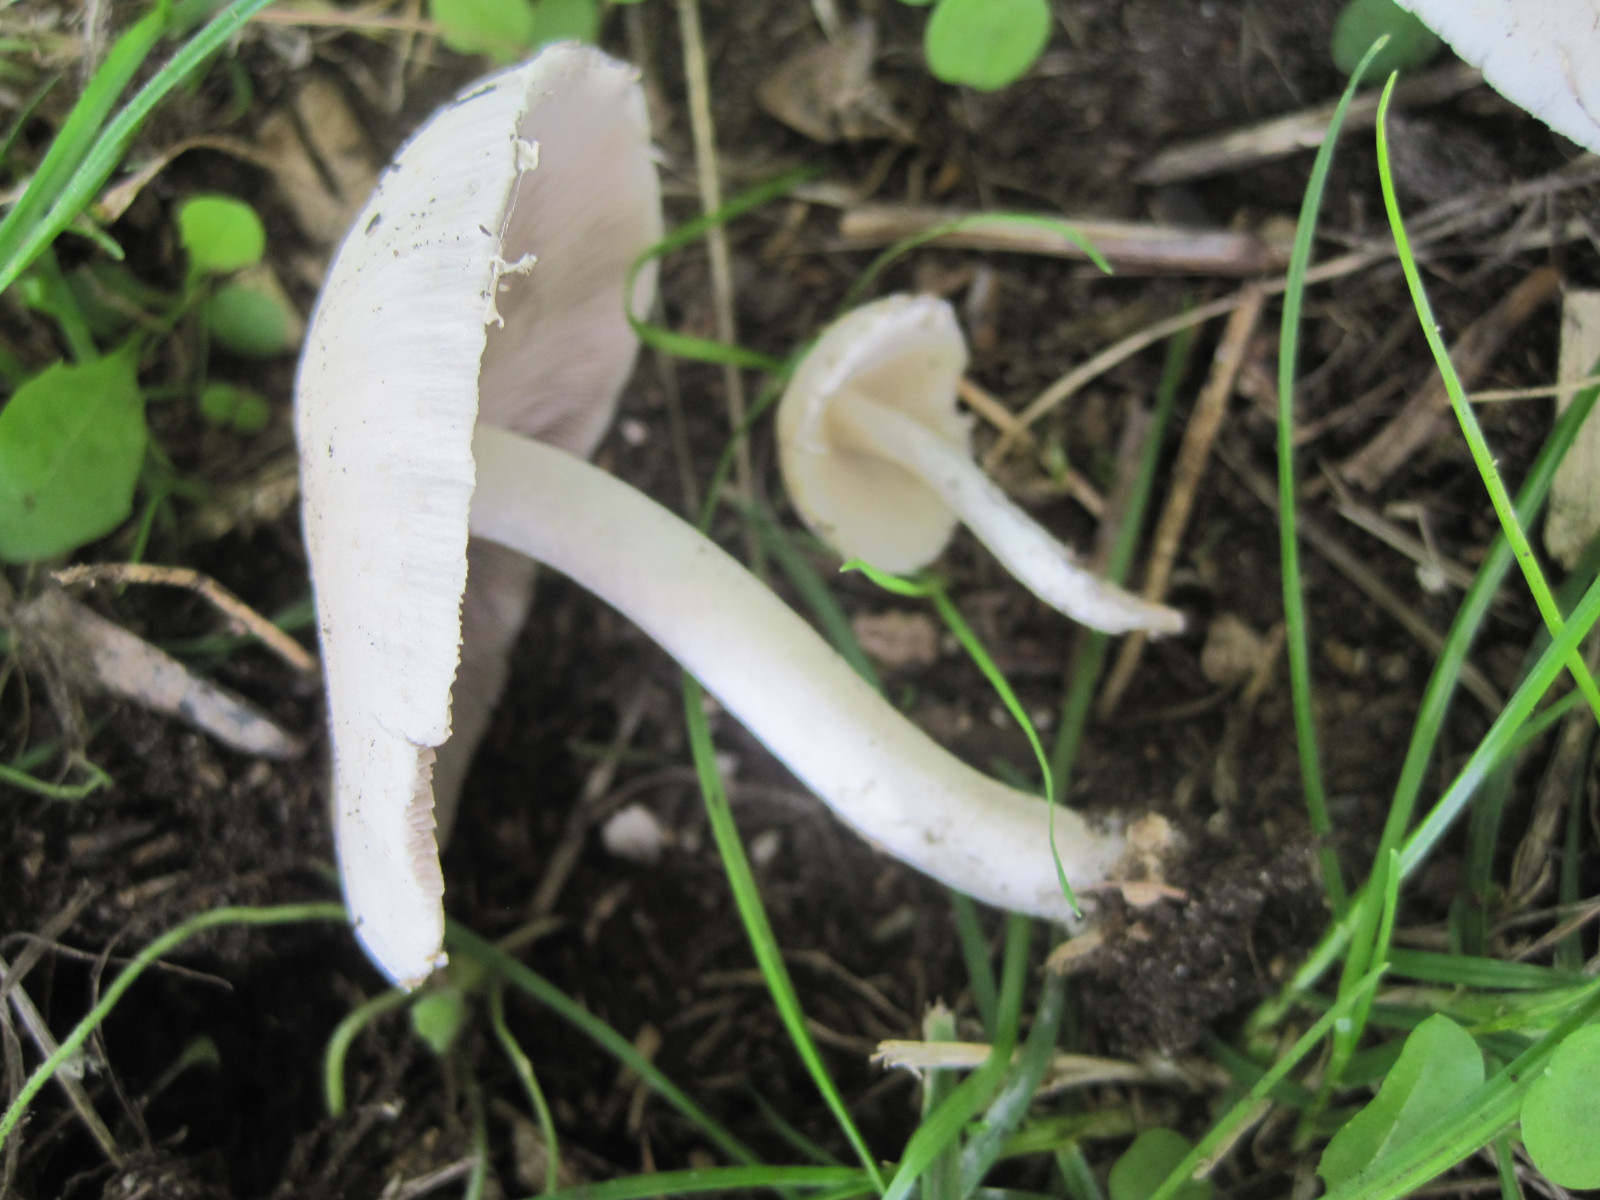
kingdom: Fungi
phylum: Basidiomycota
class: Agaricomycetes
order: Agaricales
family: Psathyrellaceae
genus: Candolleomyces
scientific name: Candolleomyces candolleanus
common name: Candolles mørkhat
